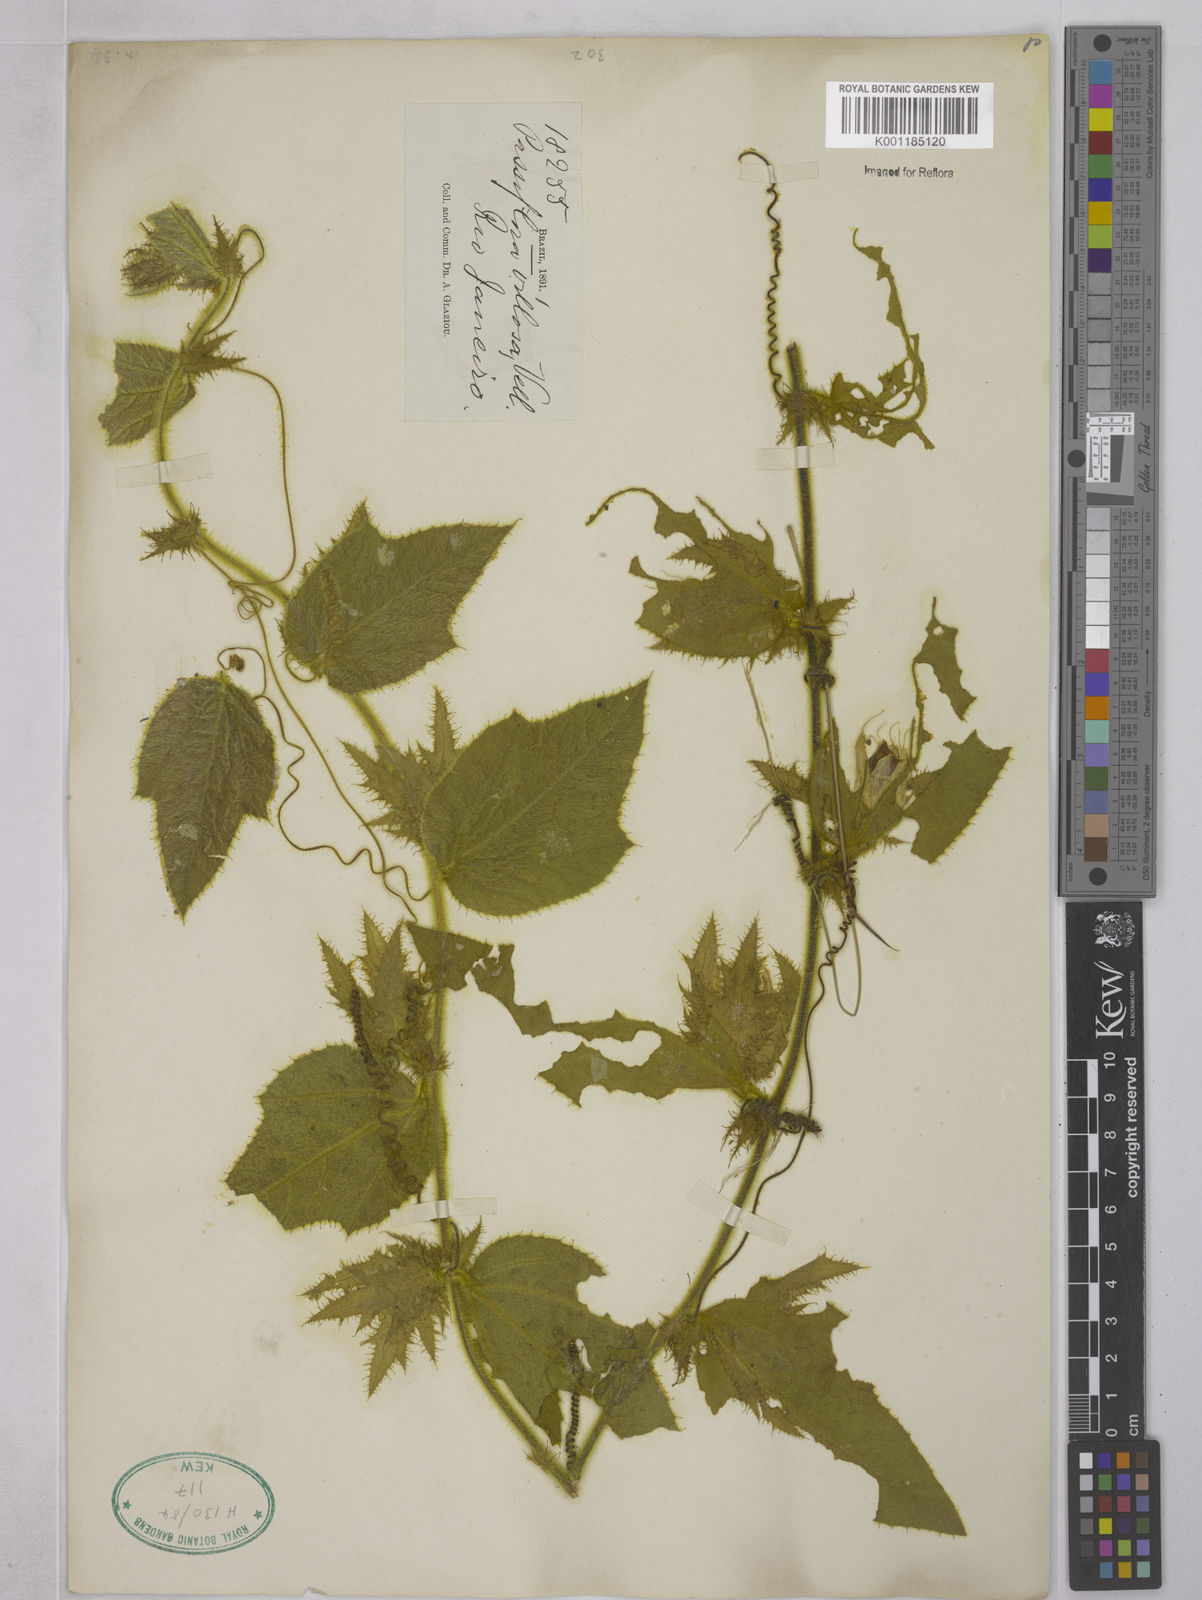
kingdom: Plantae
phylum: Tracheophyta
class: Magnoliopsida
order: Malpighiales
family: Passifloraceae
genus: Passiflora
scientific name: Passiflora villosa
